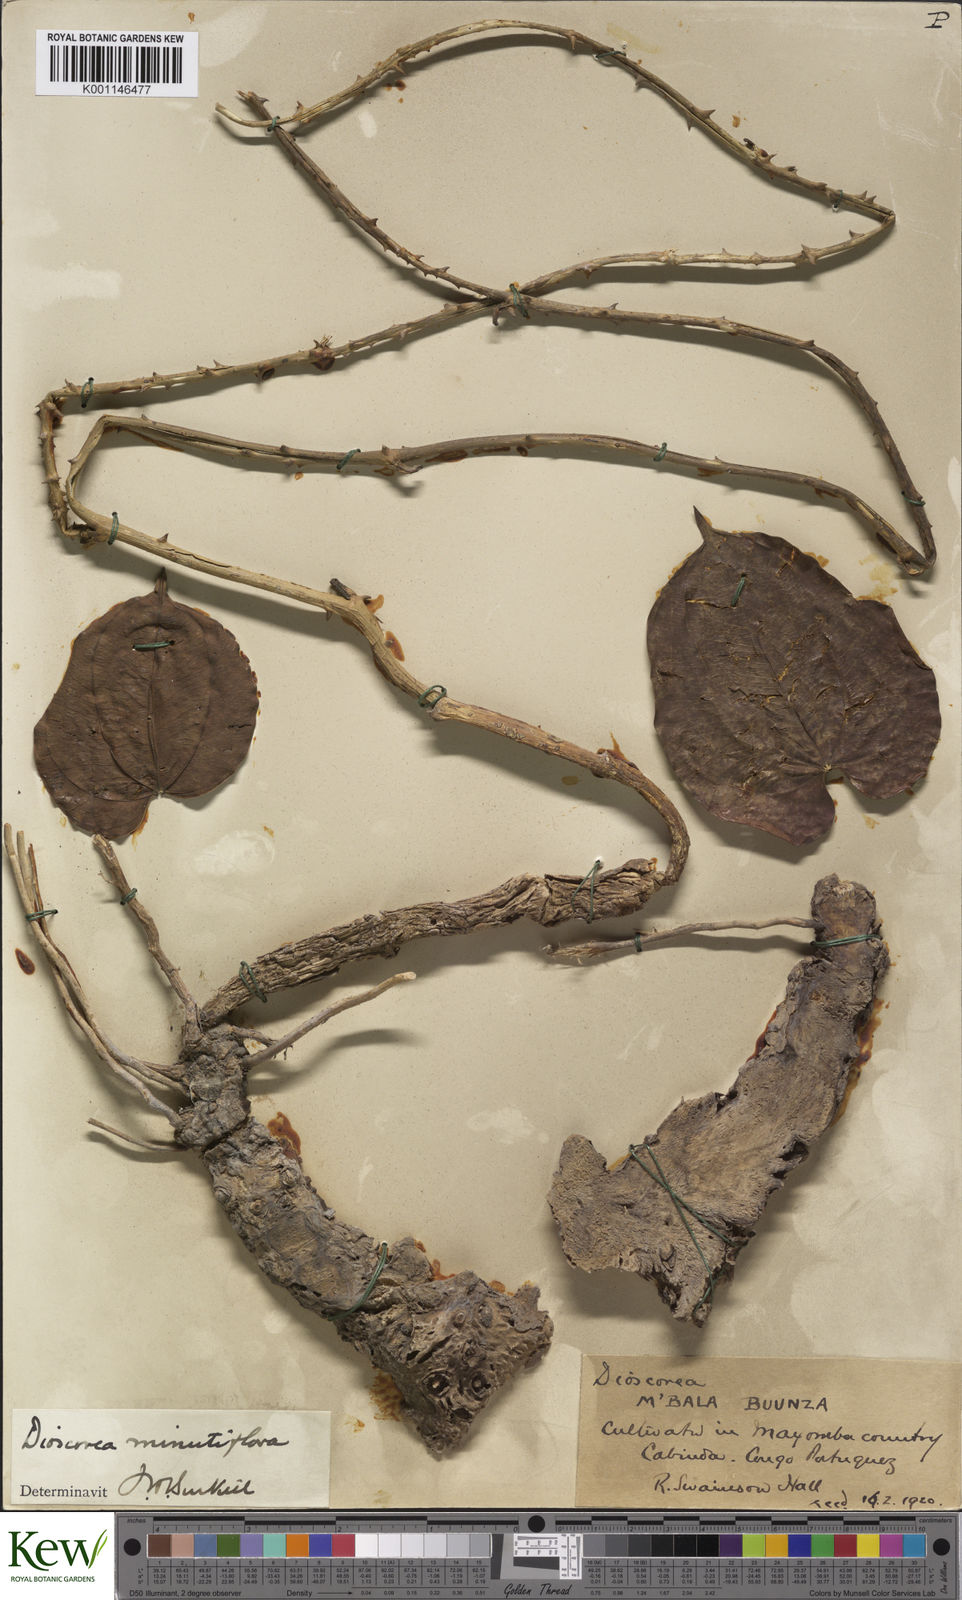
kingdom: Plantae
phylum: Tracheophyta
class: Liliopsida
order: Dioscoreales
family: Dioscoreaceae
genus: Dioscorea
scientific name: Dioscorea minutiflora
